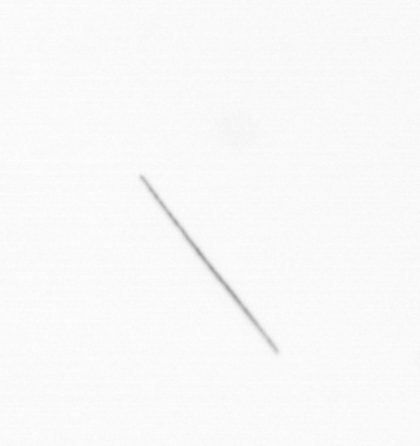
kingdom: Chromista
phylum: Ochrophyta
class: Bacillariophyceae
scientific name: Bacillariophyceae
